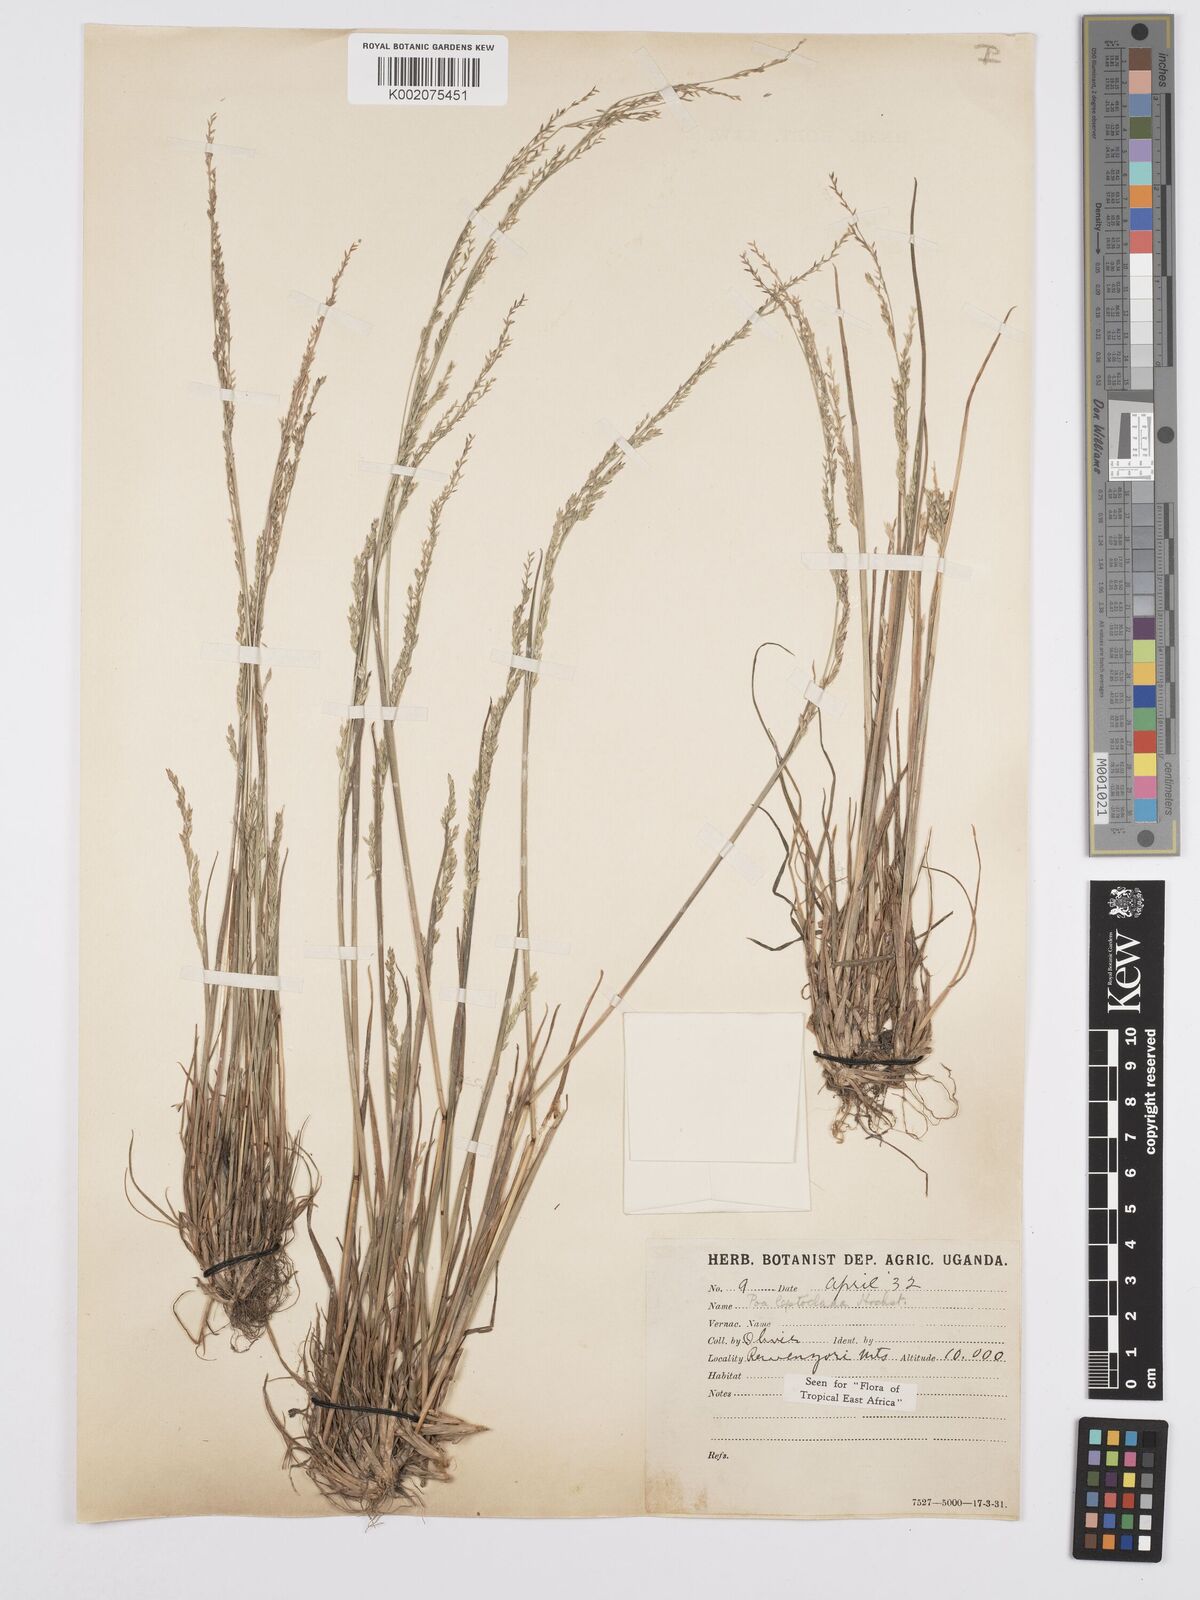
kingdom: Plantae
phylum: Tracheophyta
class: Liliopsida
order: Poales
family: Poaceae
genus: Poa
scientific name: Poa
